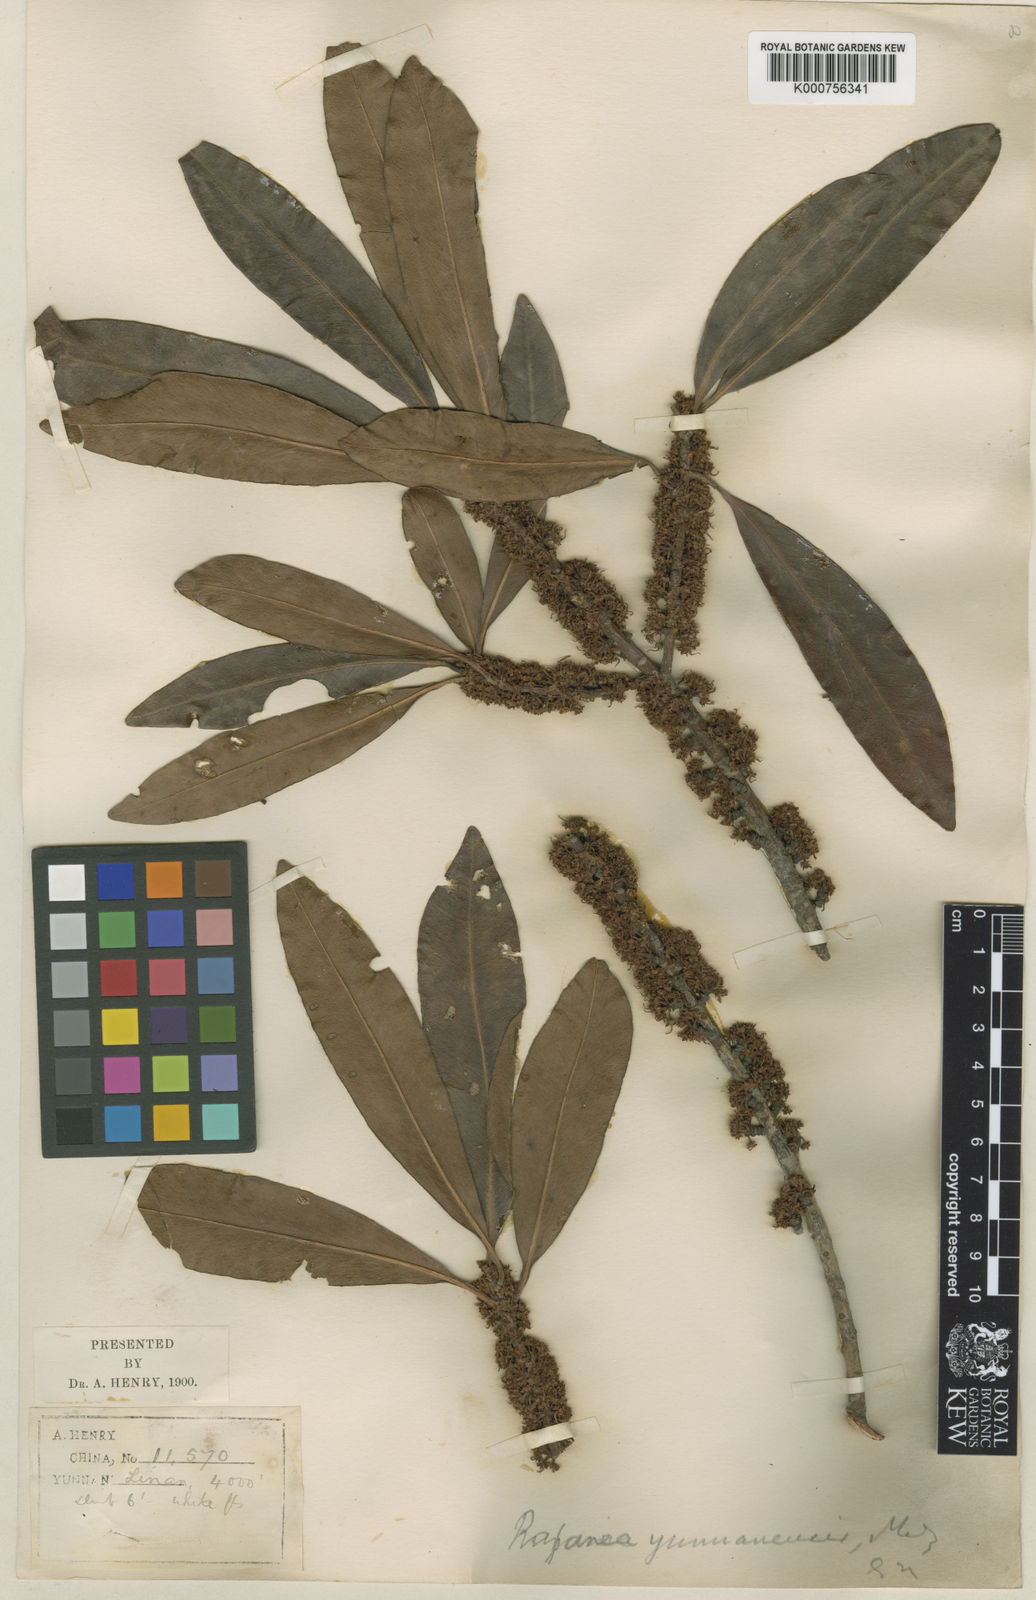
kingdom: Plantae
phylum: Tracheophyta
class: Magnoliopsida
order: Ericales
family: Primulaceae
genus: Myrsine
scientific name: Myrsine
